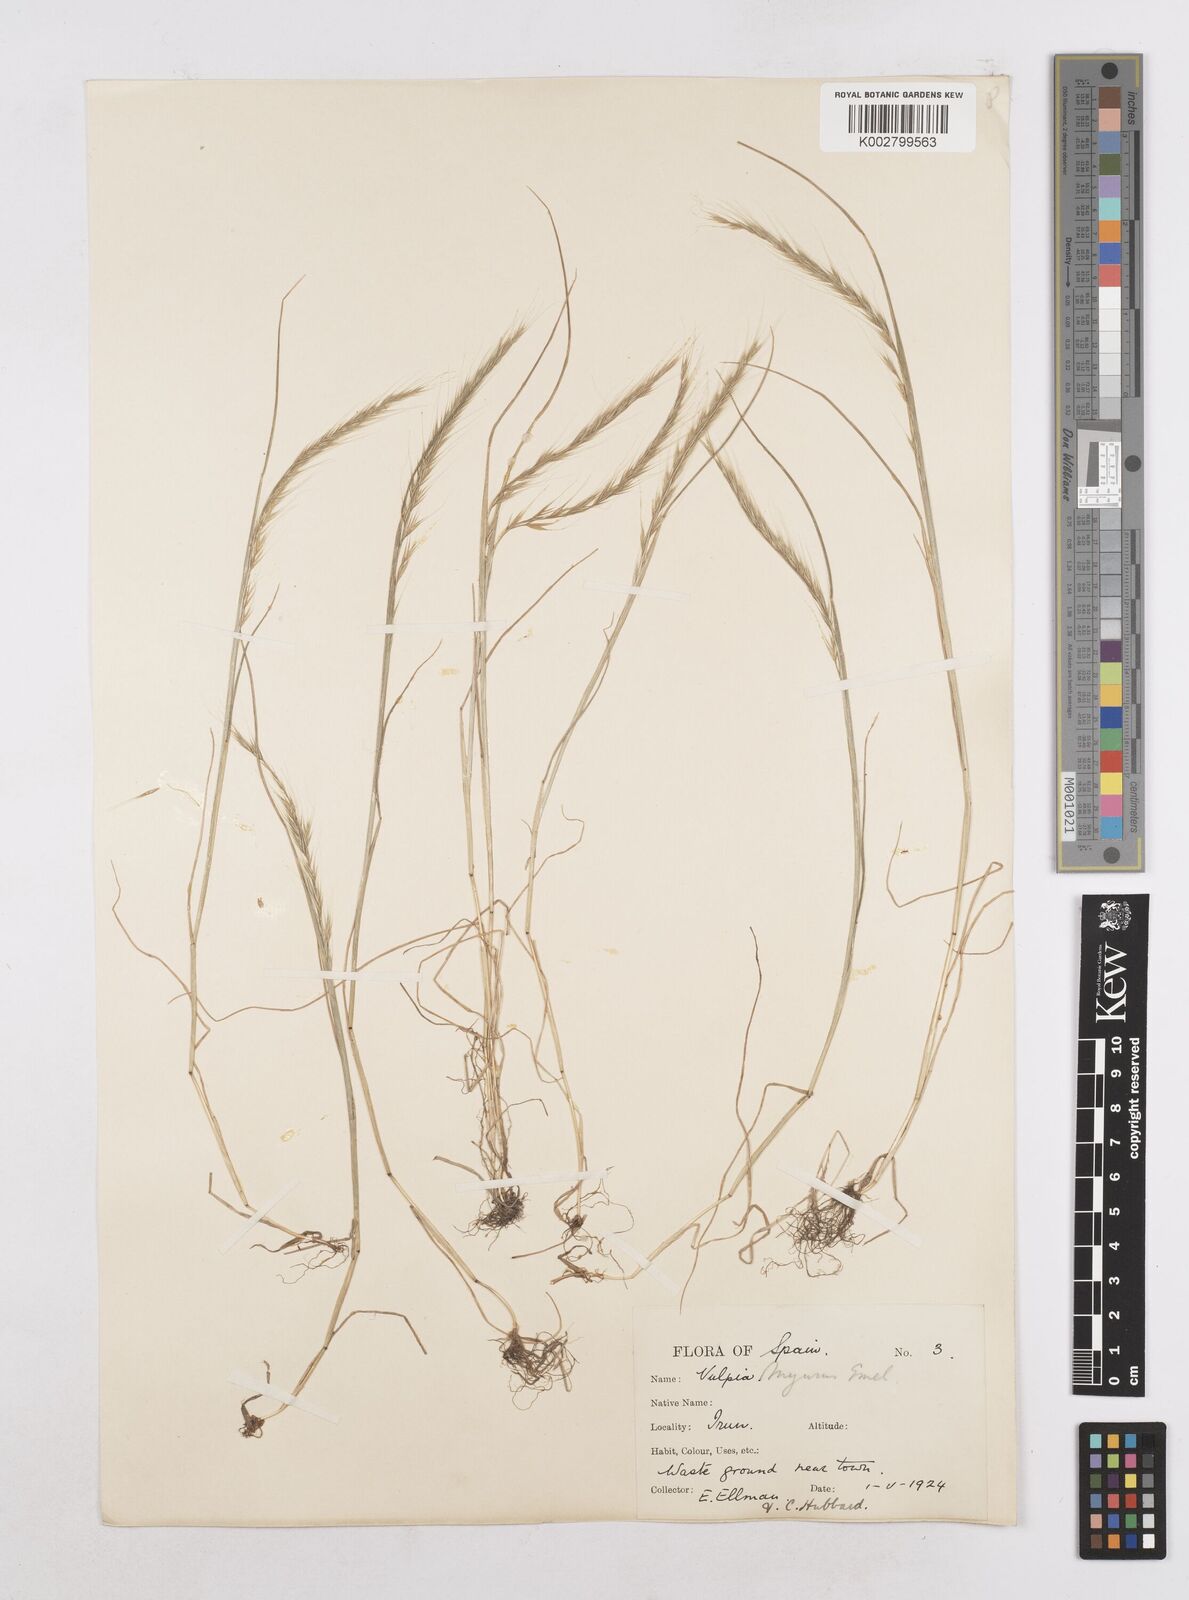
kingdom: Plantae
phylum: Tracheophyta
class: Liliopsida
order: Poales
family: Poaceae
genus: Festuca
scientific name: Festuca myuros
